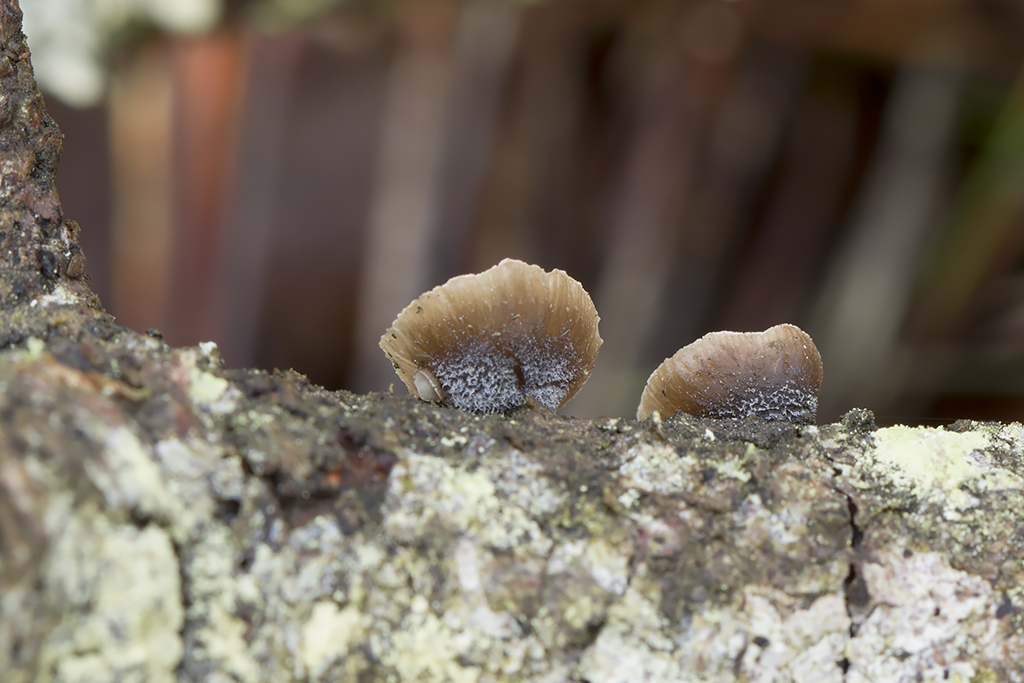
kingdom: Fungi
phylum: Basidiomycota
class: Agaricomycetes
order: Agaricales
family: Pleurotaceae
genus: Hohenbuehelia
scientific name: Hohenbuehelia fluxilis
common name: pile-filthat
